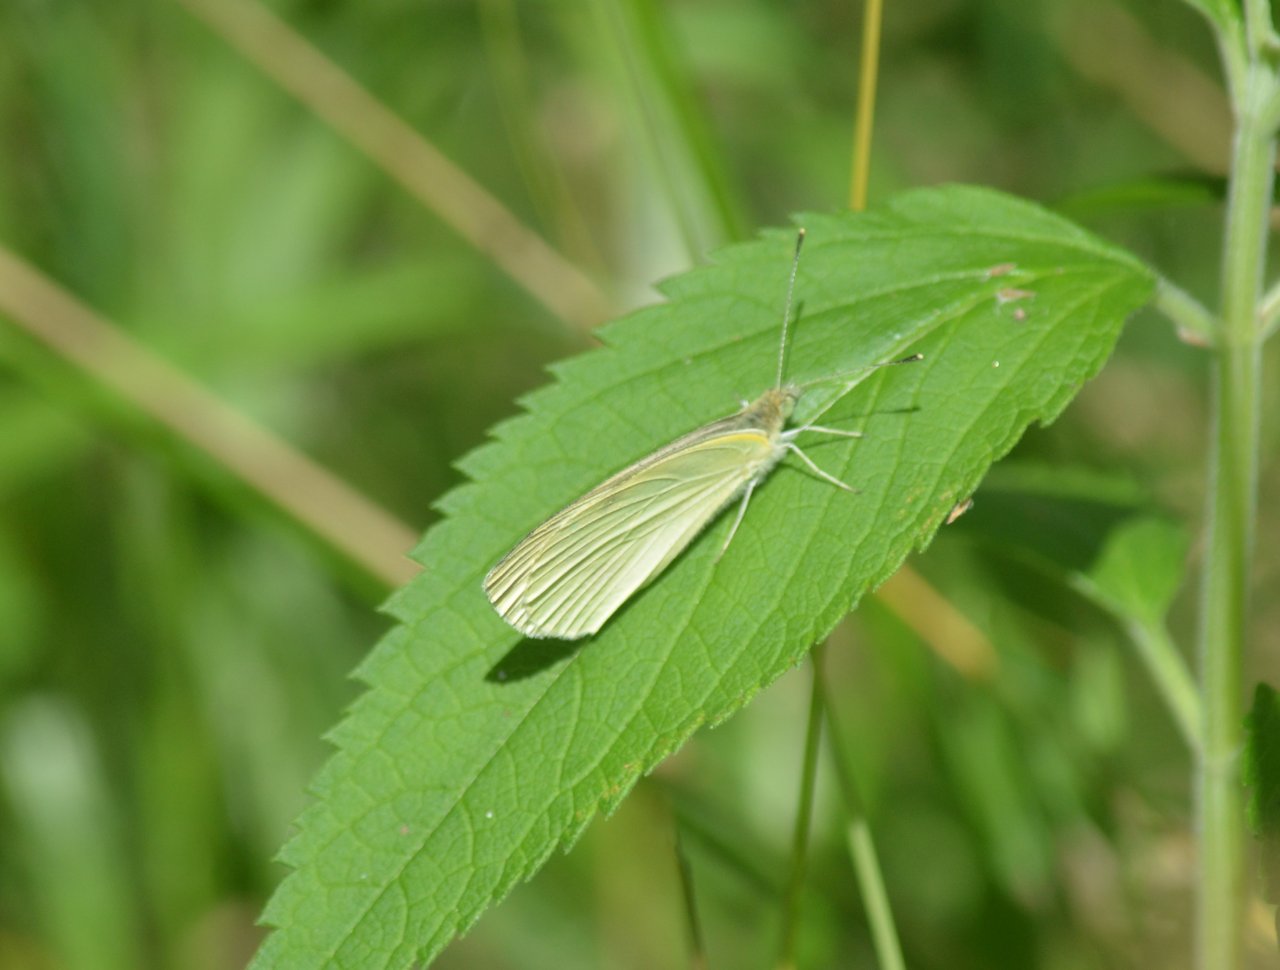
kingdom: Animalia
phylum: Arthropoda
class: Insecta
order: Lepidoptera
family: Pieridae
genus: Pieris
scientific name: Pieris oleracea
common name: Mustard White
